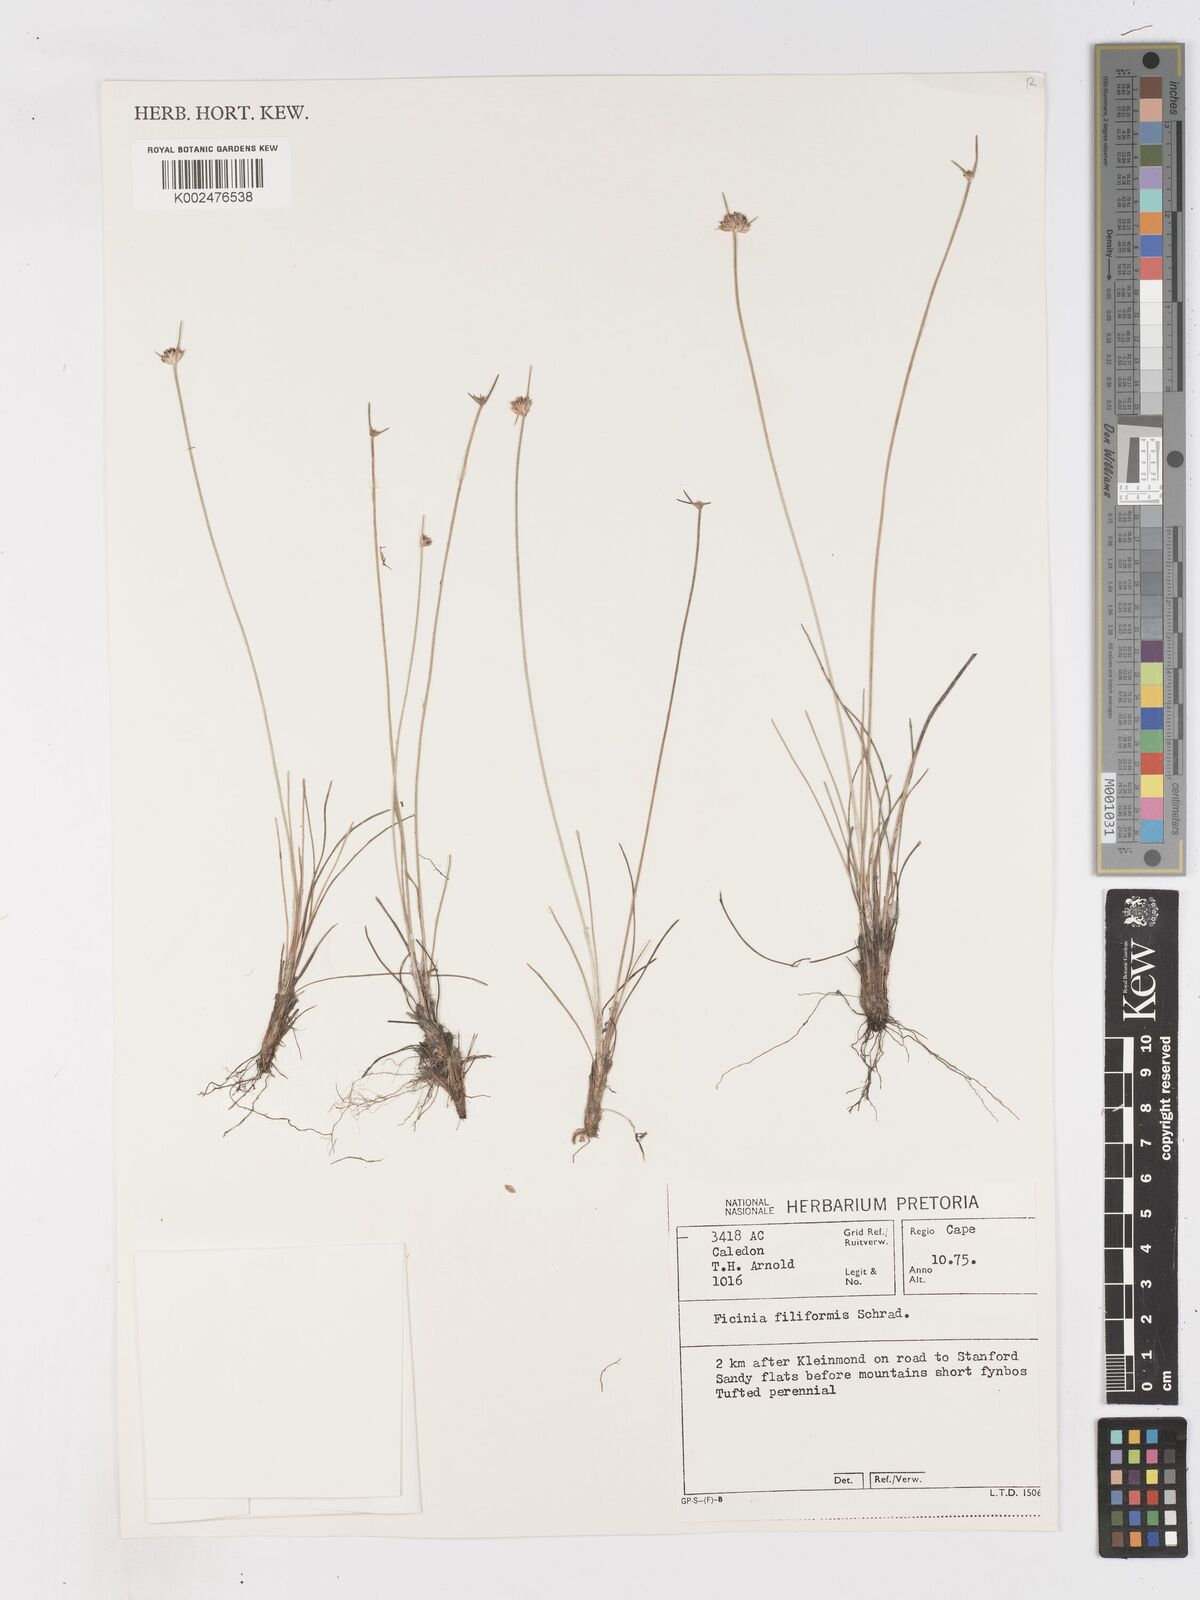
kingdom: Plantae
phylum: Tracheophyta
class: Liliopsida
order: Poales
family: Cyperaceae
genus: Ficinia
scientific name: Ficinia
